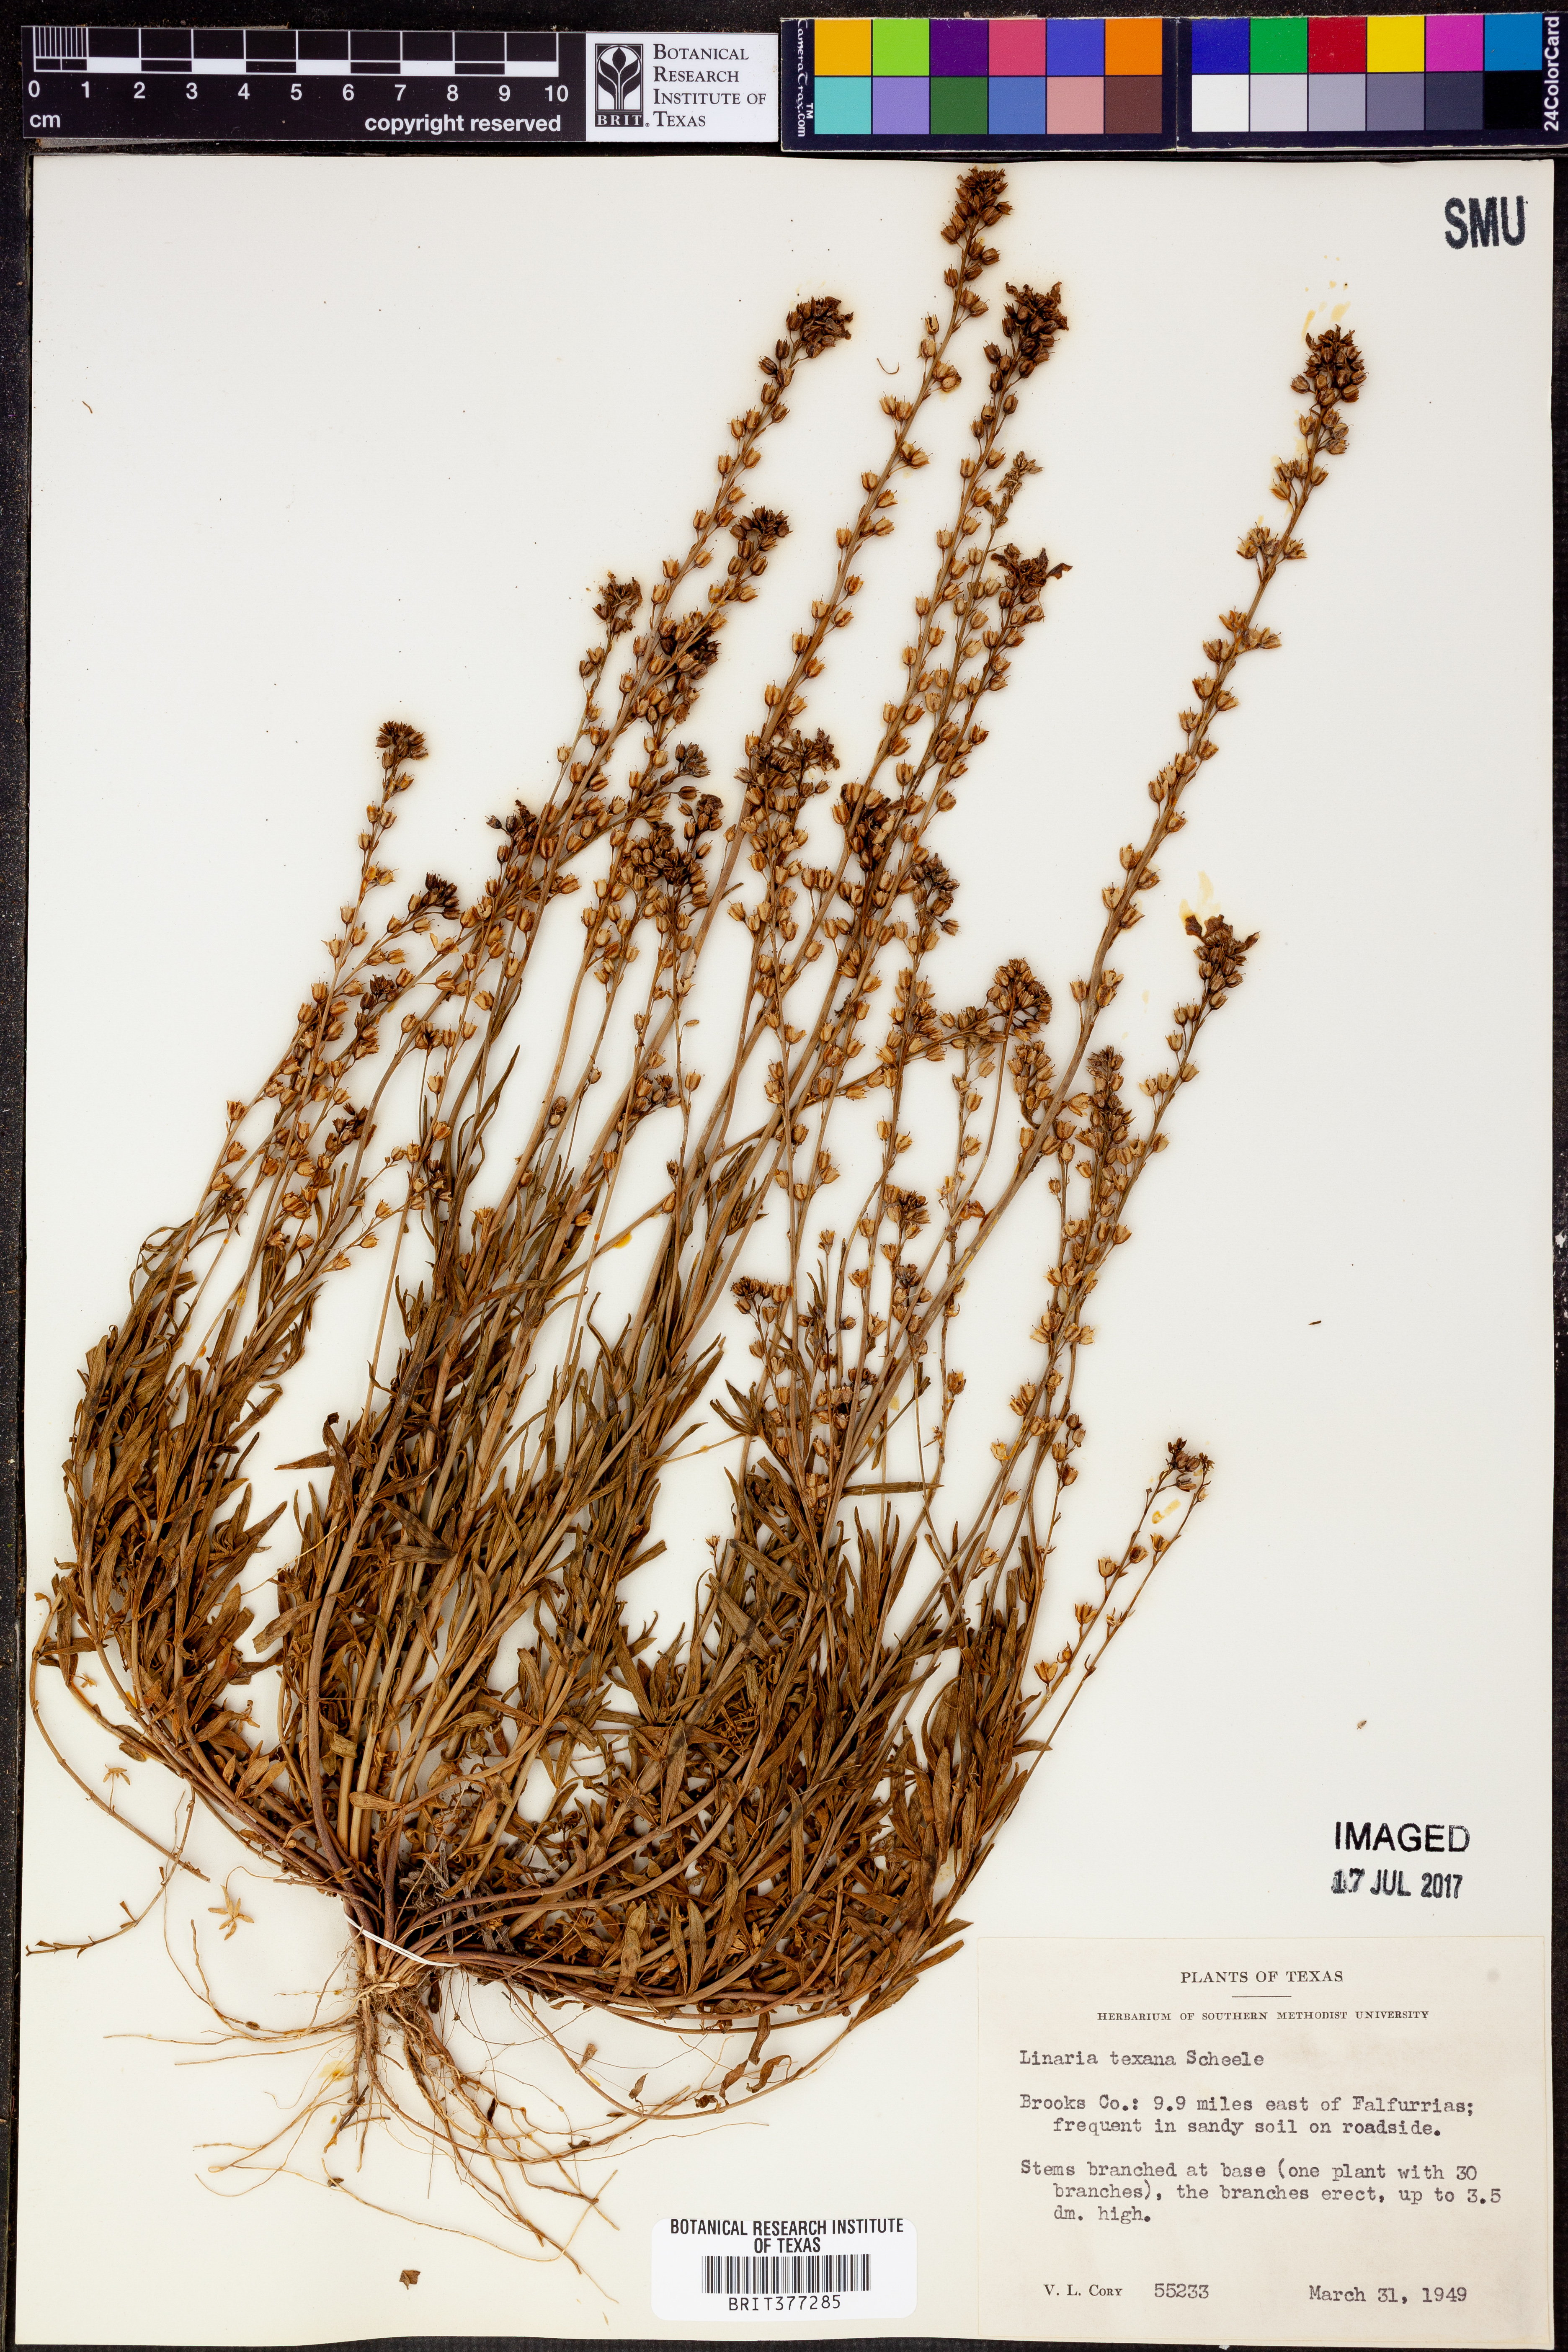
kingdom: Plantae
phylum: Tracheophyta
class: Magnoliopsida
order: Lamiales
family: Plantaginaceae
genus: Nuttallanthus
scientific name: Nuttallanthus texanus
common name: Texas toadflax
